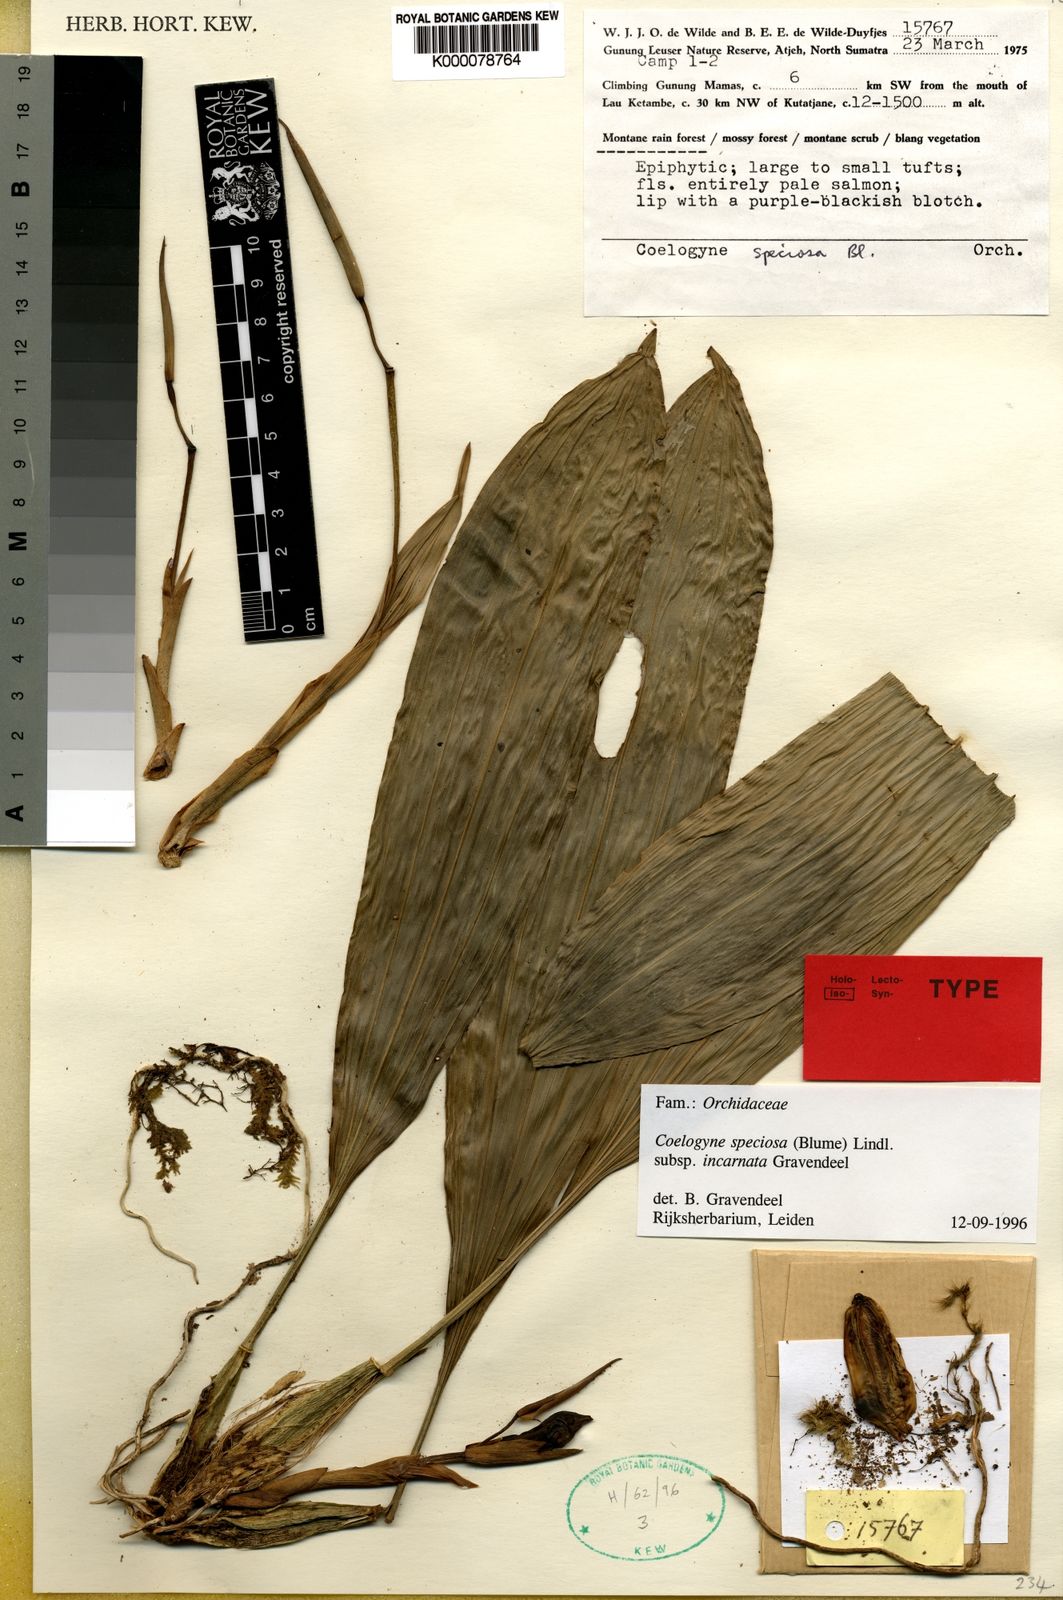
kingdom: Plantae
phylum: Tracheophyta
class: Liliopsida
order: Asparagales
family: Orchidaceae
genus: Coelogyne
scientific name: Coelogyne speciosa
